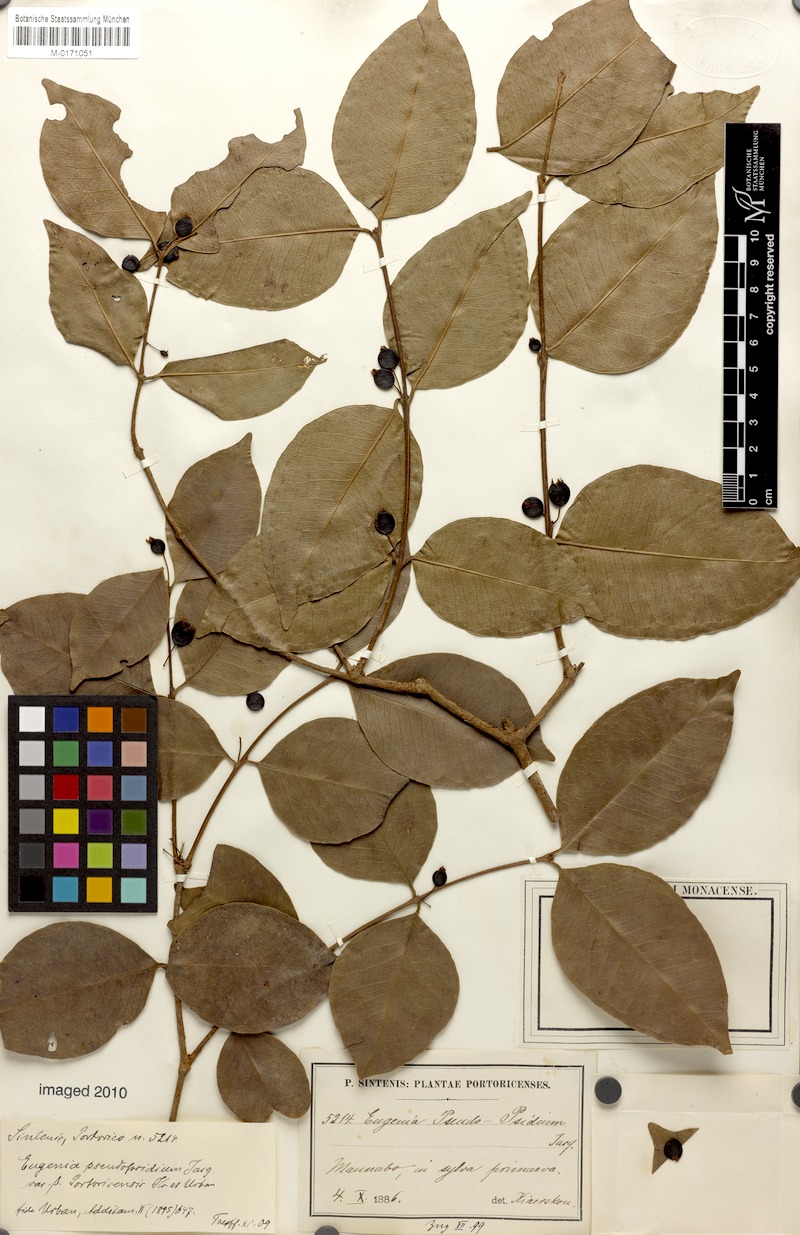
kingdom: Plantae
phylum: Tracheophyta
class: Magnoliopsida
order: Myrtales
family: Myrtaceae
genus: Eugenia
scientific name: Eugenia pseudopsidium
